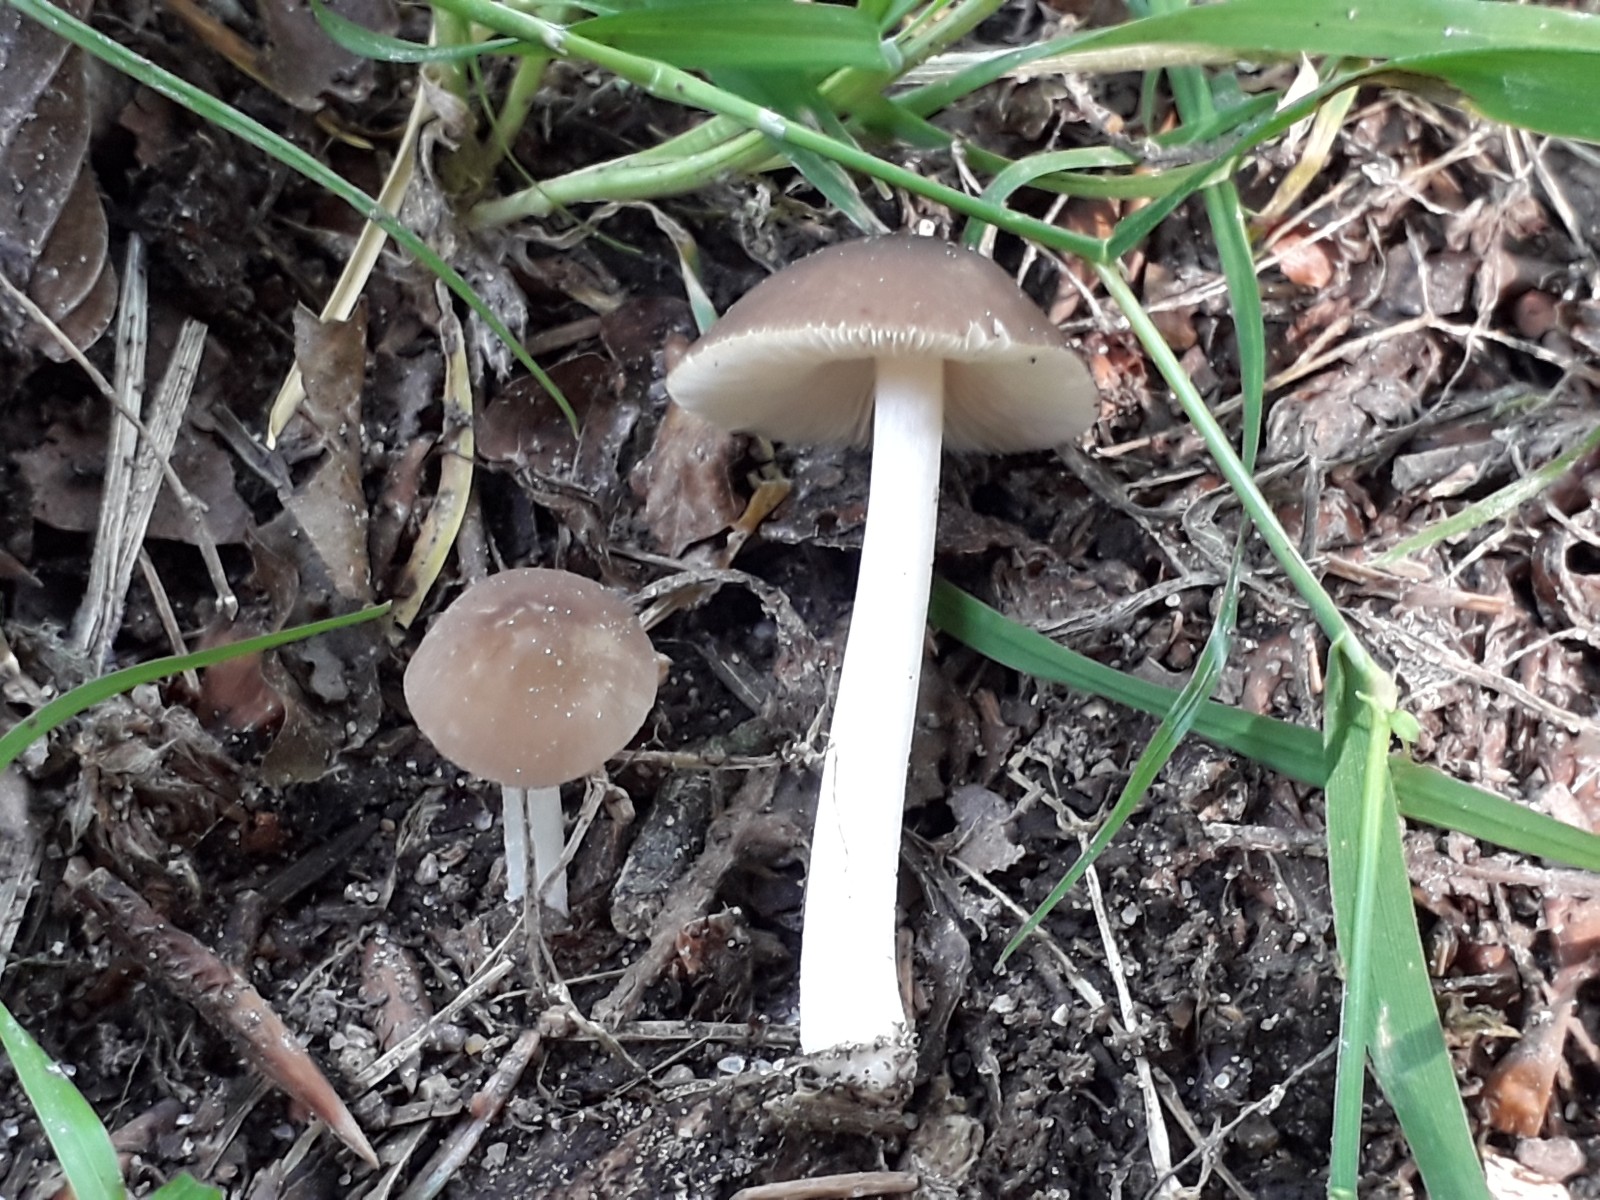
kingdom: Fungi
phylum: Basidiomycota
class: Agaricomycetes
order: Agaricales
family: Pluteaceae
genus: Pluteus
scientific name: Pluteus
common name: pudret skærmhat
